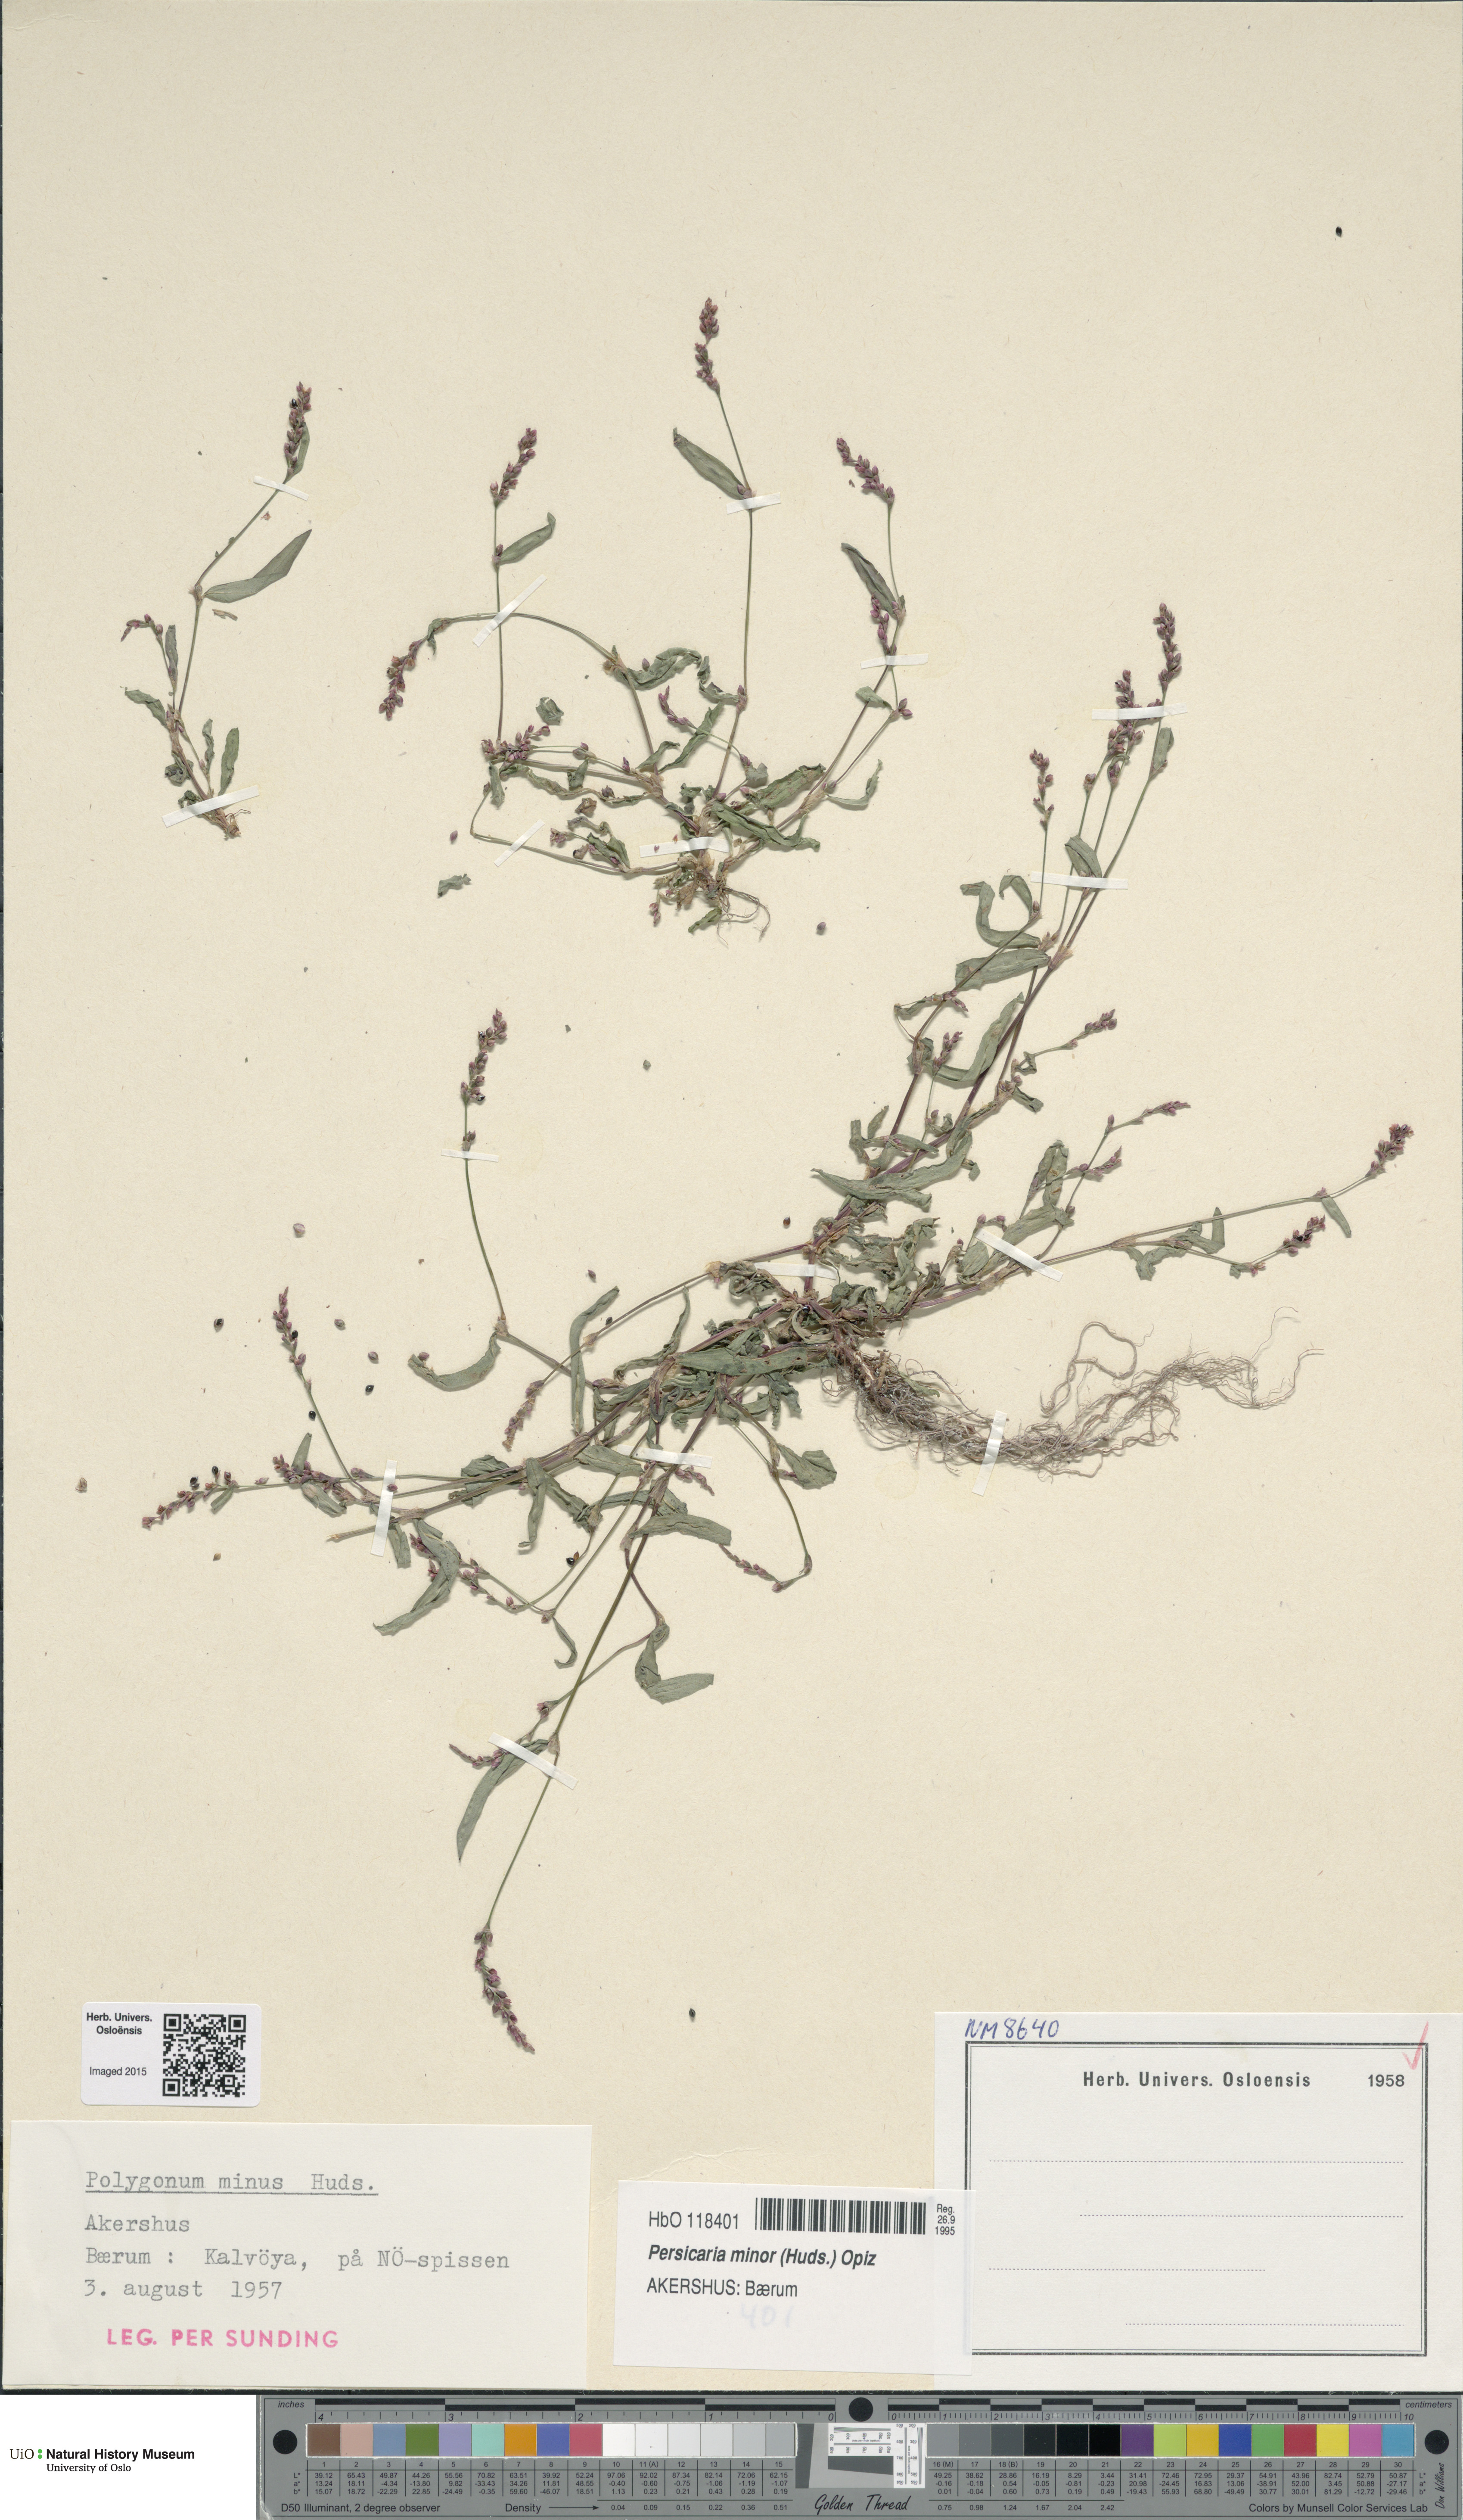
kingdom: Plantae
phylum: Tracheophyta
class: Magnoliopsida
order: Caryophyllales
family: Polygonaceae
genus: Persicaria
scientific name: Persicaria minor
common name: Small water-pepper
